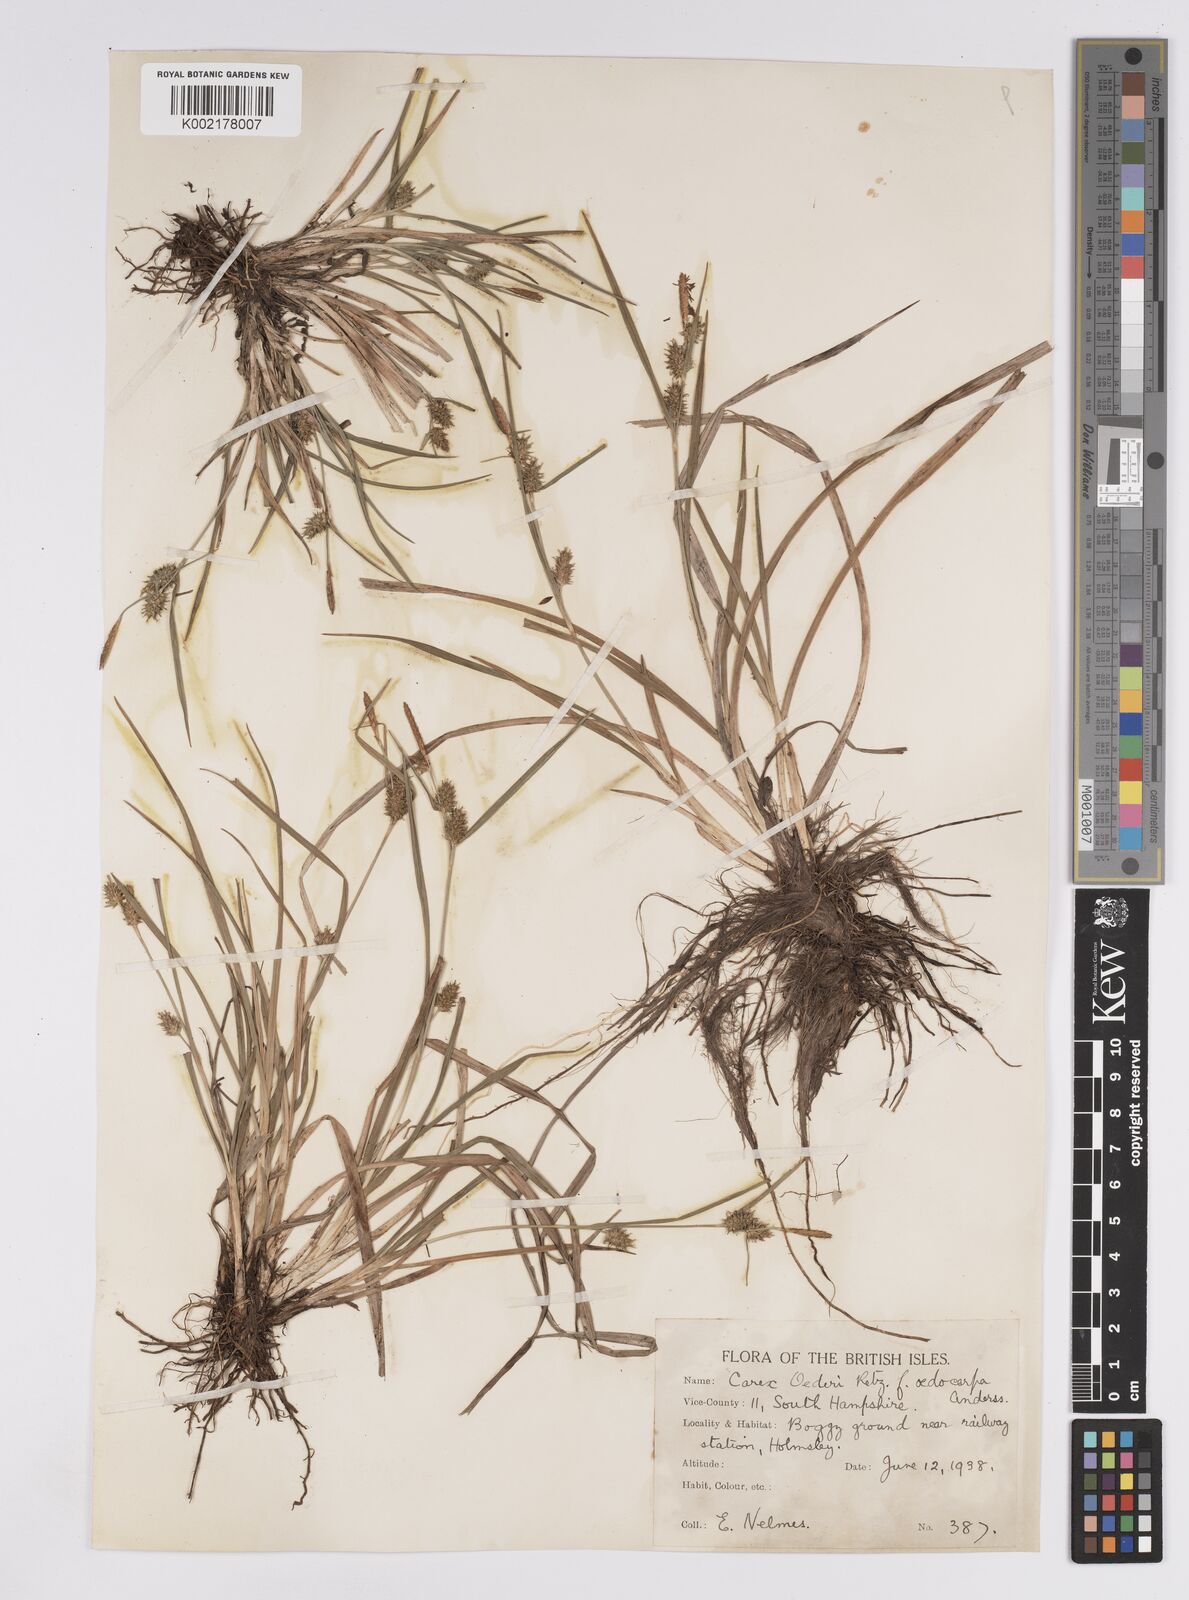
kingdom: Plantae
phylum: Tracheophyta
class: Liliopsida
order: Poales
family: Cyperaceae
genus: Carex
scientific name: Carex demissa
